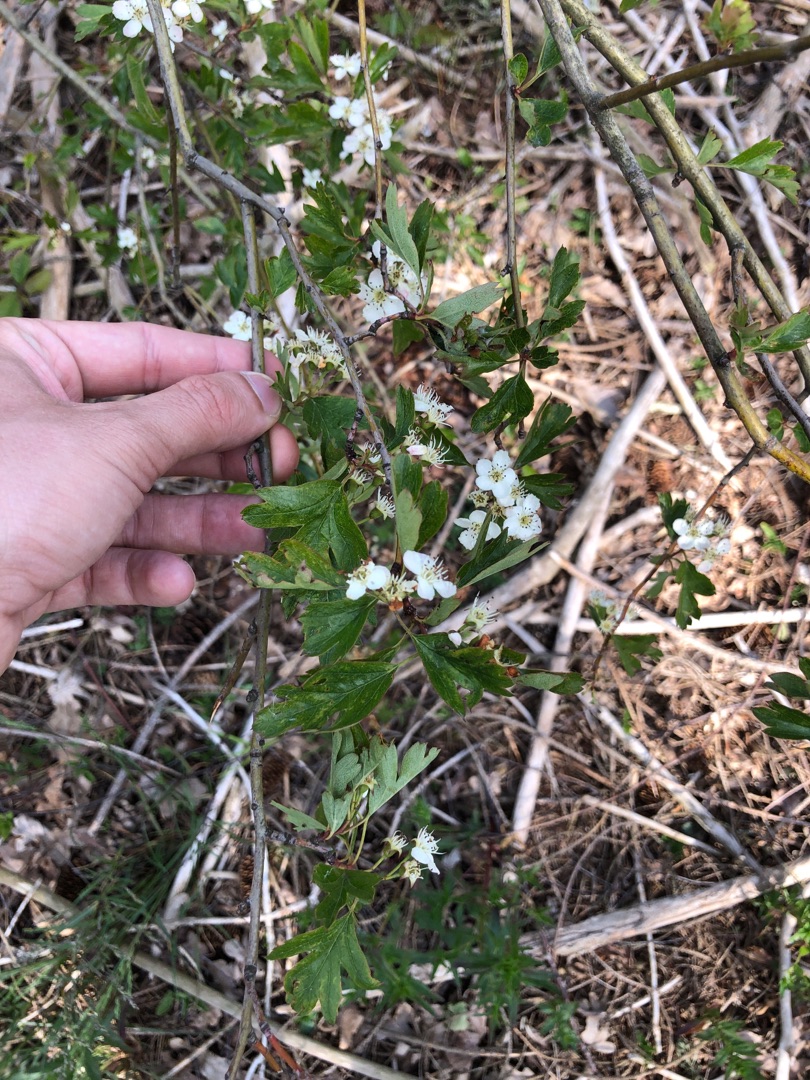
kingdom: Plantae
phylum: Tracheophyta
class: Magnoliopsida
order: Rosales
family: Rosaceae
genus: Crataegus
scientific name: Crataegus monogyna
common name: Engriflet hvidtjørn
